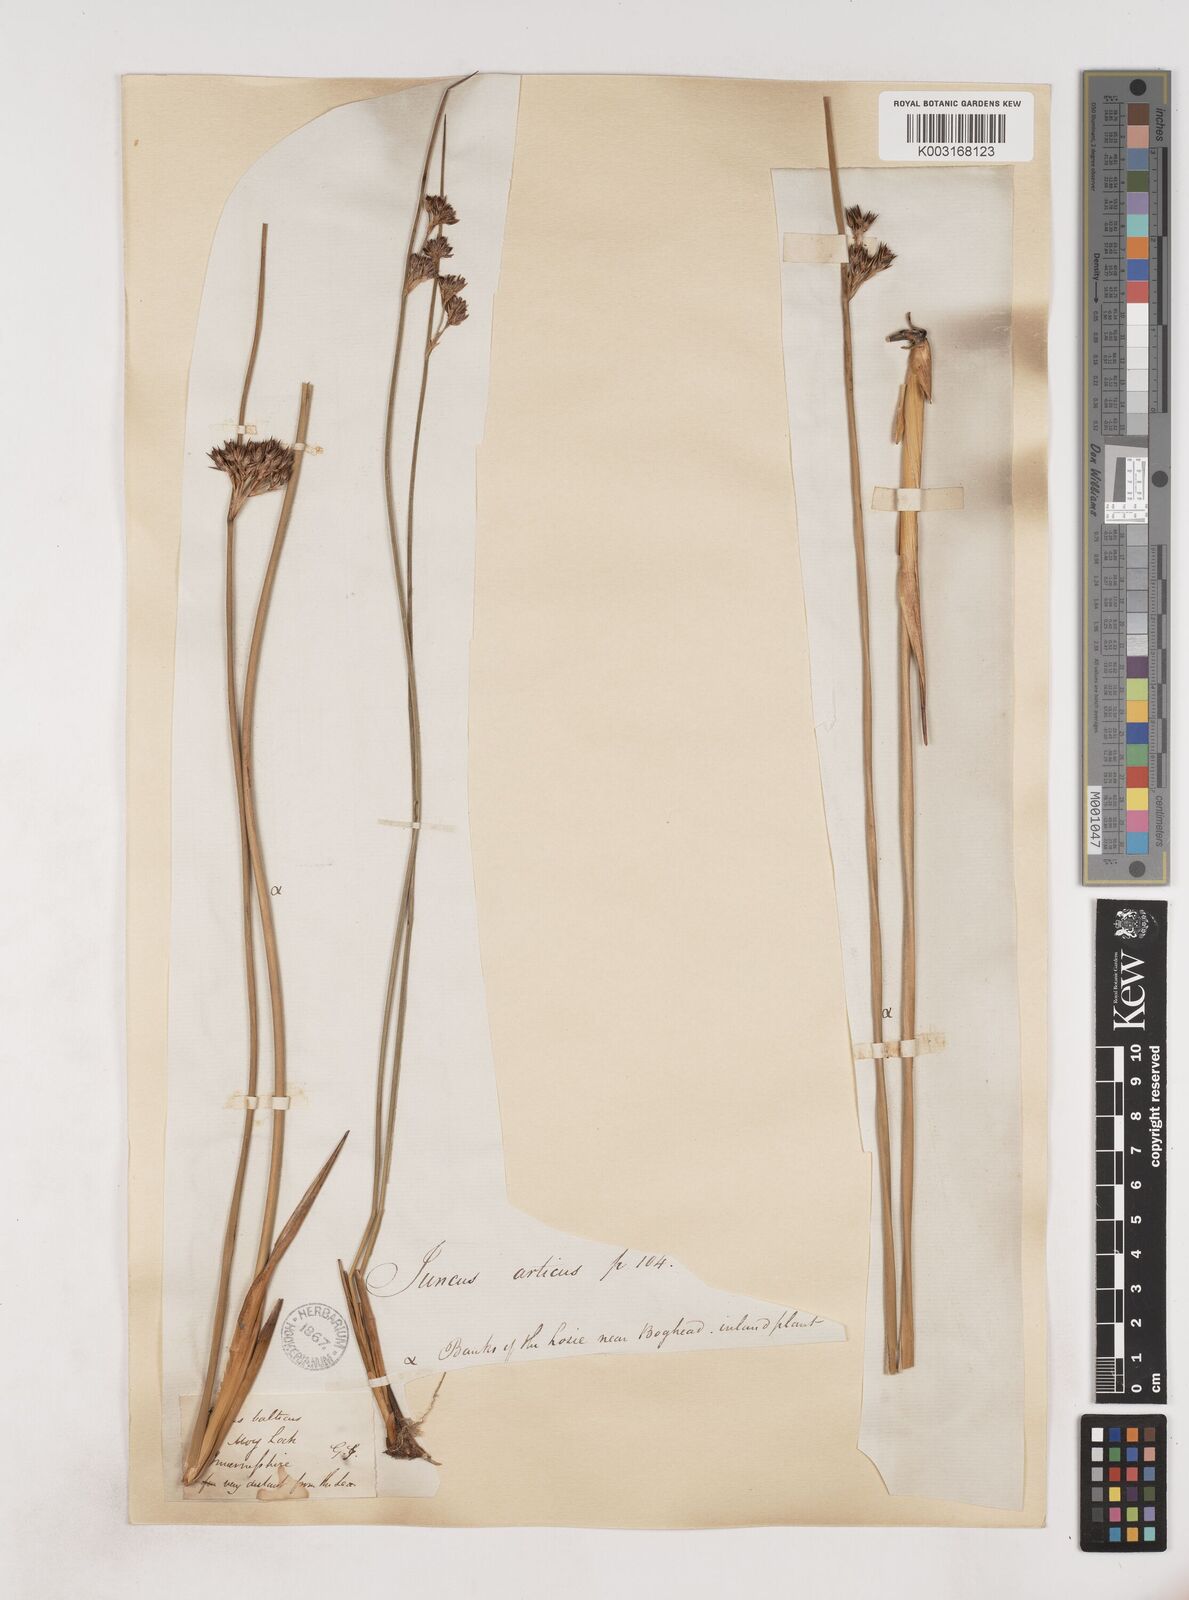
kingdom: Plantae
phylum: Tracheophyta
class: Liliopsida
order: Poales
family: Juncaceae
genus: Juncus
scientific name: Juncus balticus
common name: Baltic rush
